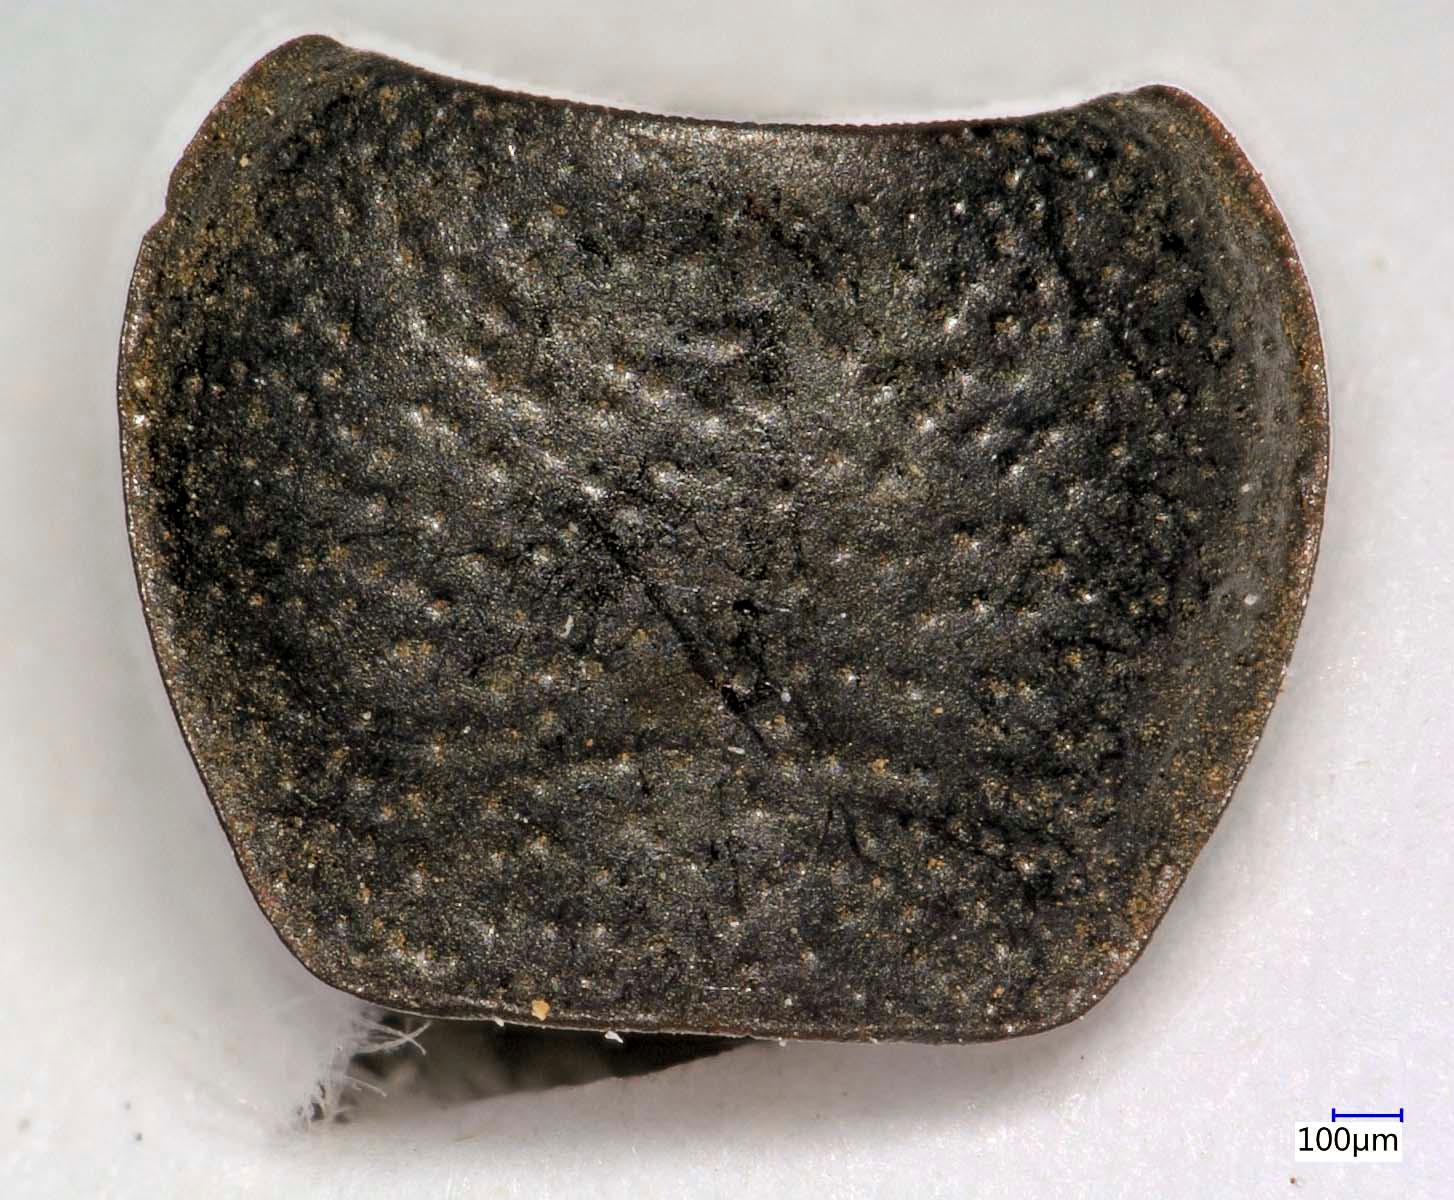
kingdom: Animalia
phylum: Arthropoda
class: Insecta
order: Coleoptera
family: Carabidae
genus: Dicheirus
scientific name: Dicheirus dilatatus
